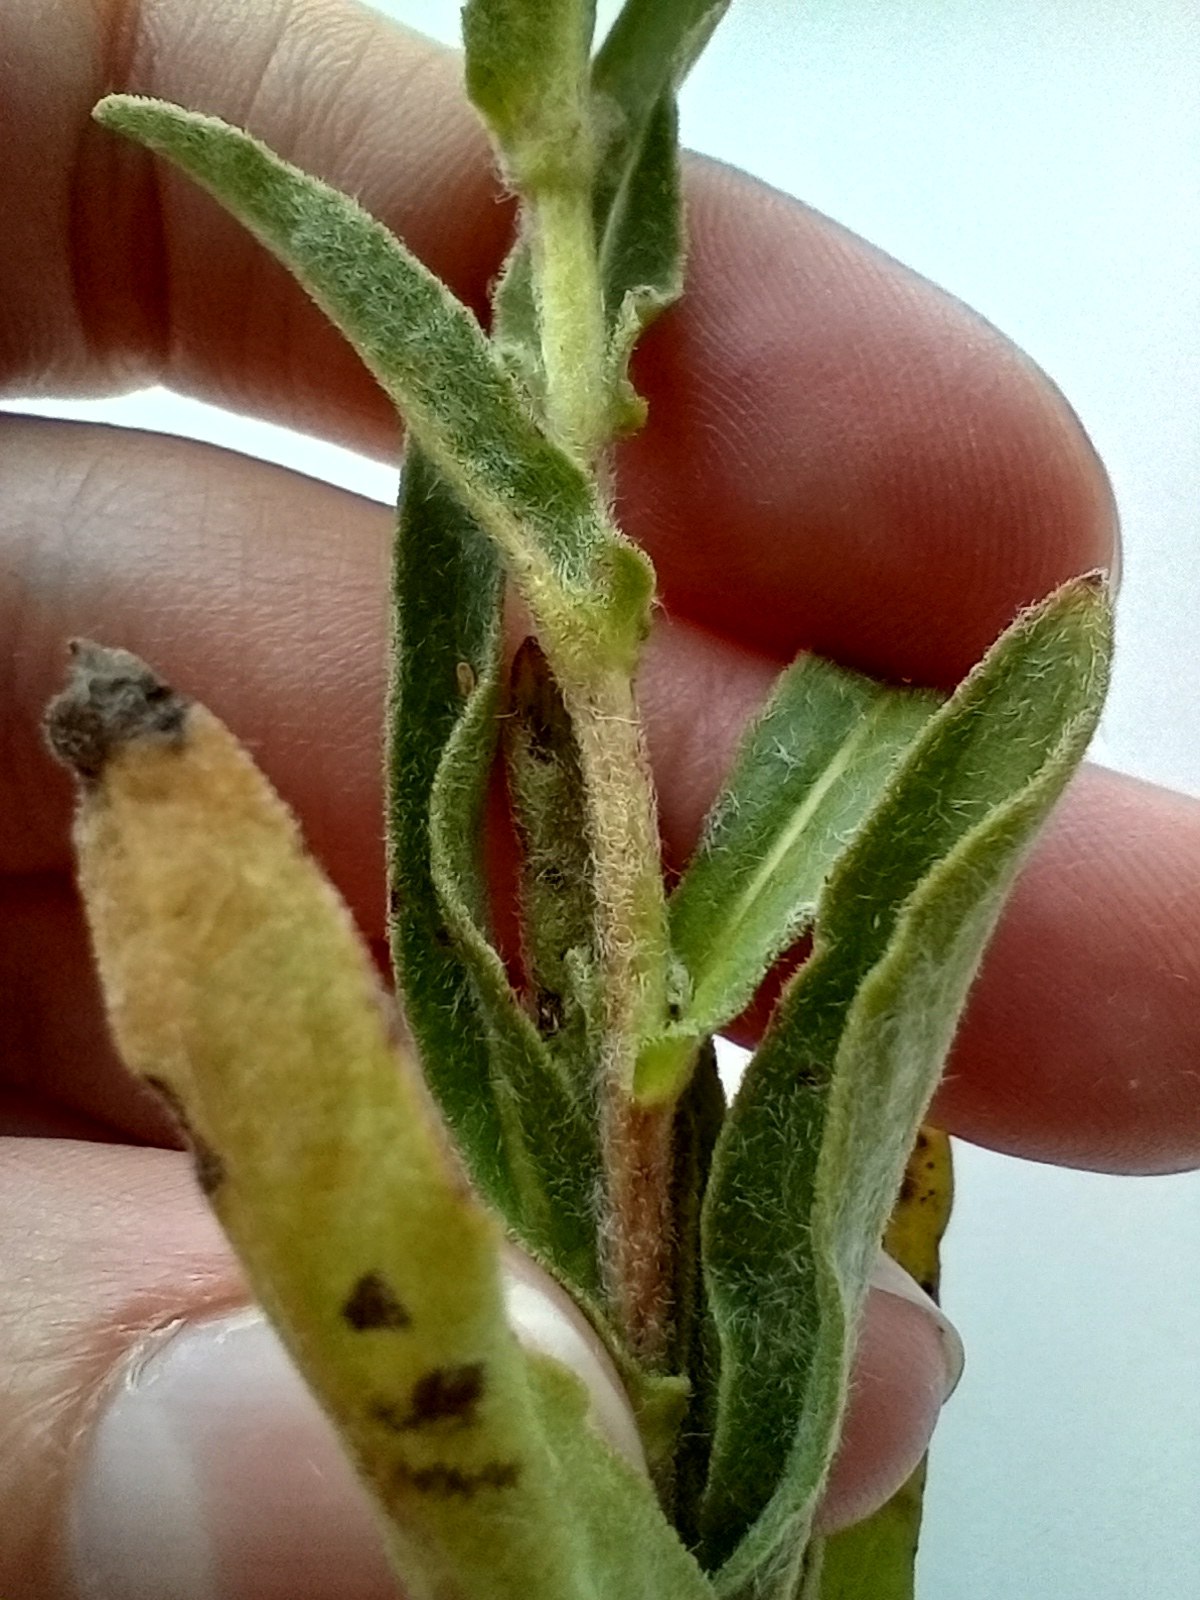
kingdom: Plantae
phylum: Tracheophyta
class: Magnoliopsida
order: Asterales
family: Asteraceae
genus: Pentanema
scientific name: Pentanema britannicum
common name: Soløje-alant
